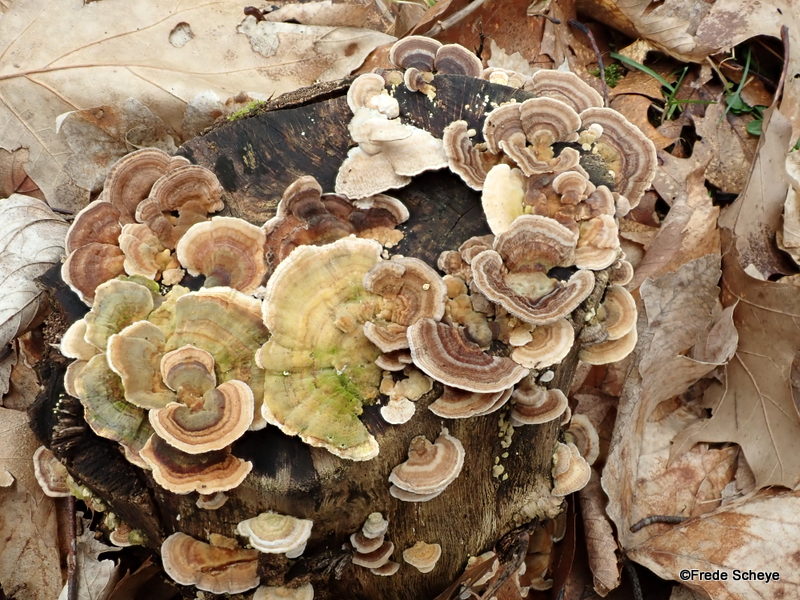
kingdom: Fungi
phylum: Basidiomycota
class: Agaricomycetes
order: Polyporales
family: Polyporaceae
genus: Trametes
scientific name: Trametes versicolor
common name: broget læderporesvamp
